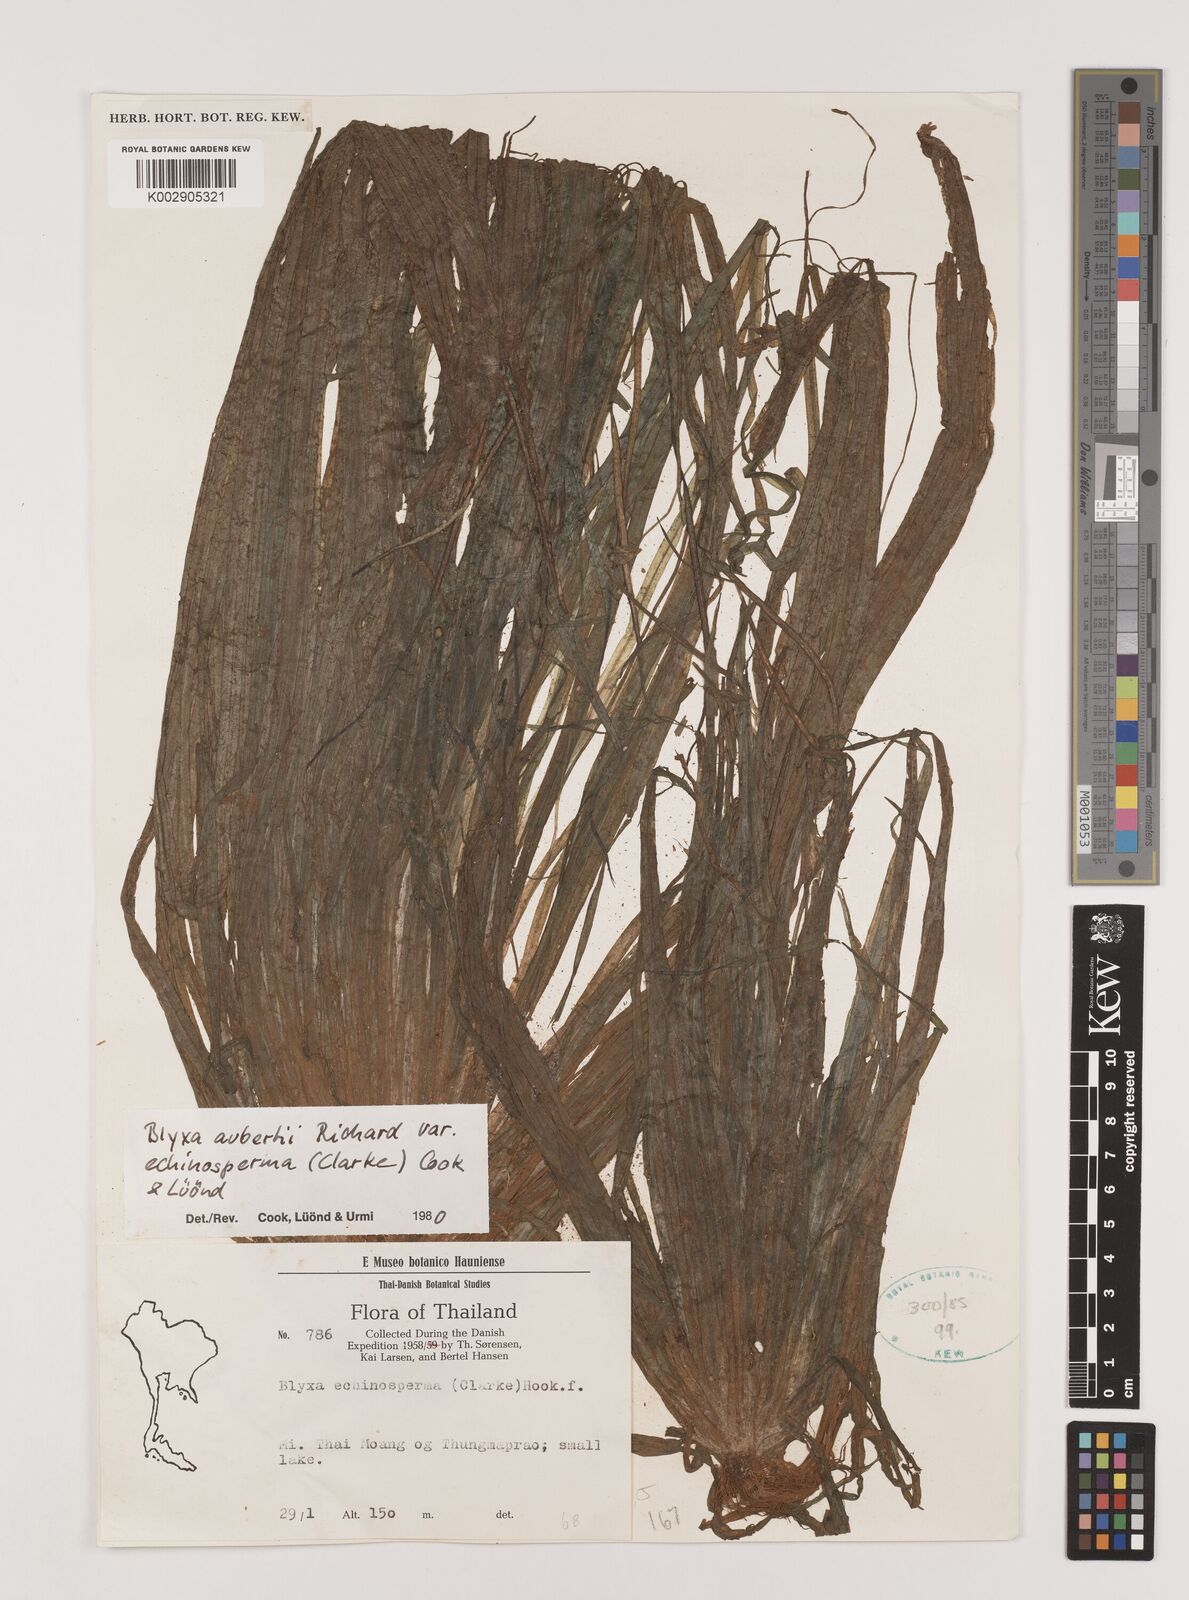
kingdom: Plantae
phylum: Tracheophyta
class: Liliopsida
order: Alismatales
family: Hydrocharitaceae
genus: Blyxa
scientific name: Blyxa echinosperma
